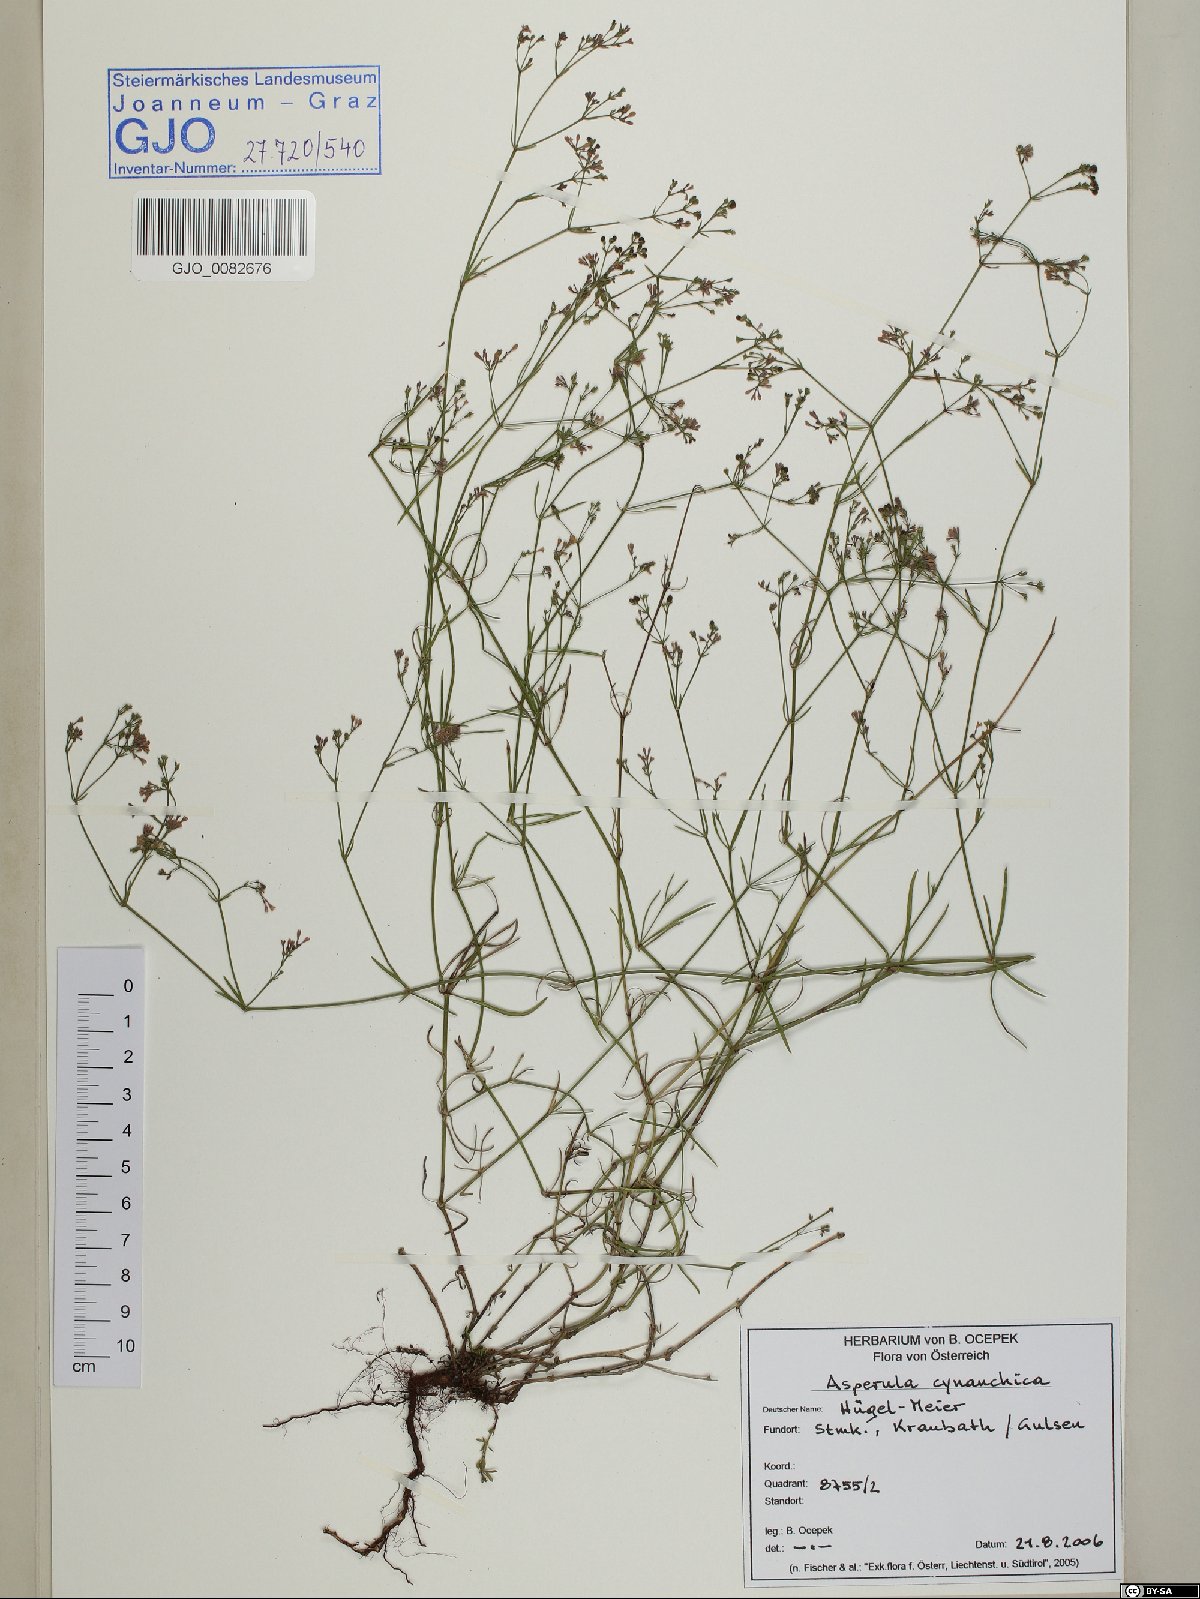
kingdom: Plantae
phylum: Tracheophyta
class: Magnoliopsida
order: Gentianales
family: Rubiaceae
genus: Cynanchica
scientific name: Cynanchica pyrenaica
